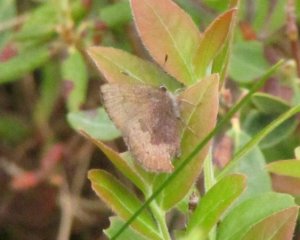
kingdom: Animalia
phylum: Arthropoda
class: Insecta
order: Lepidoptera
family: Lycaenidae
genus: Incisalia
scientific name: Incisalia irioides
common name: Brown Elfin
